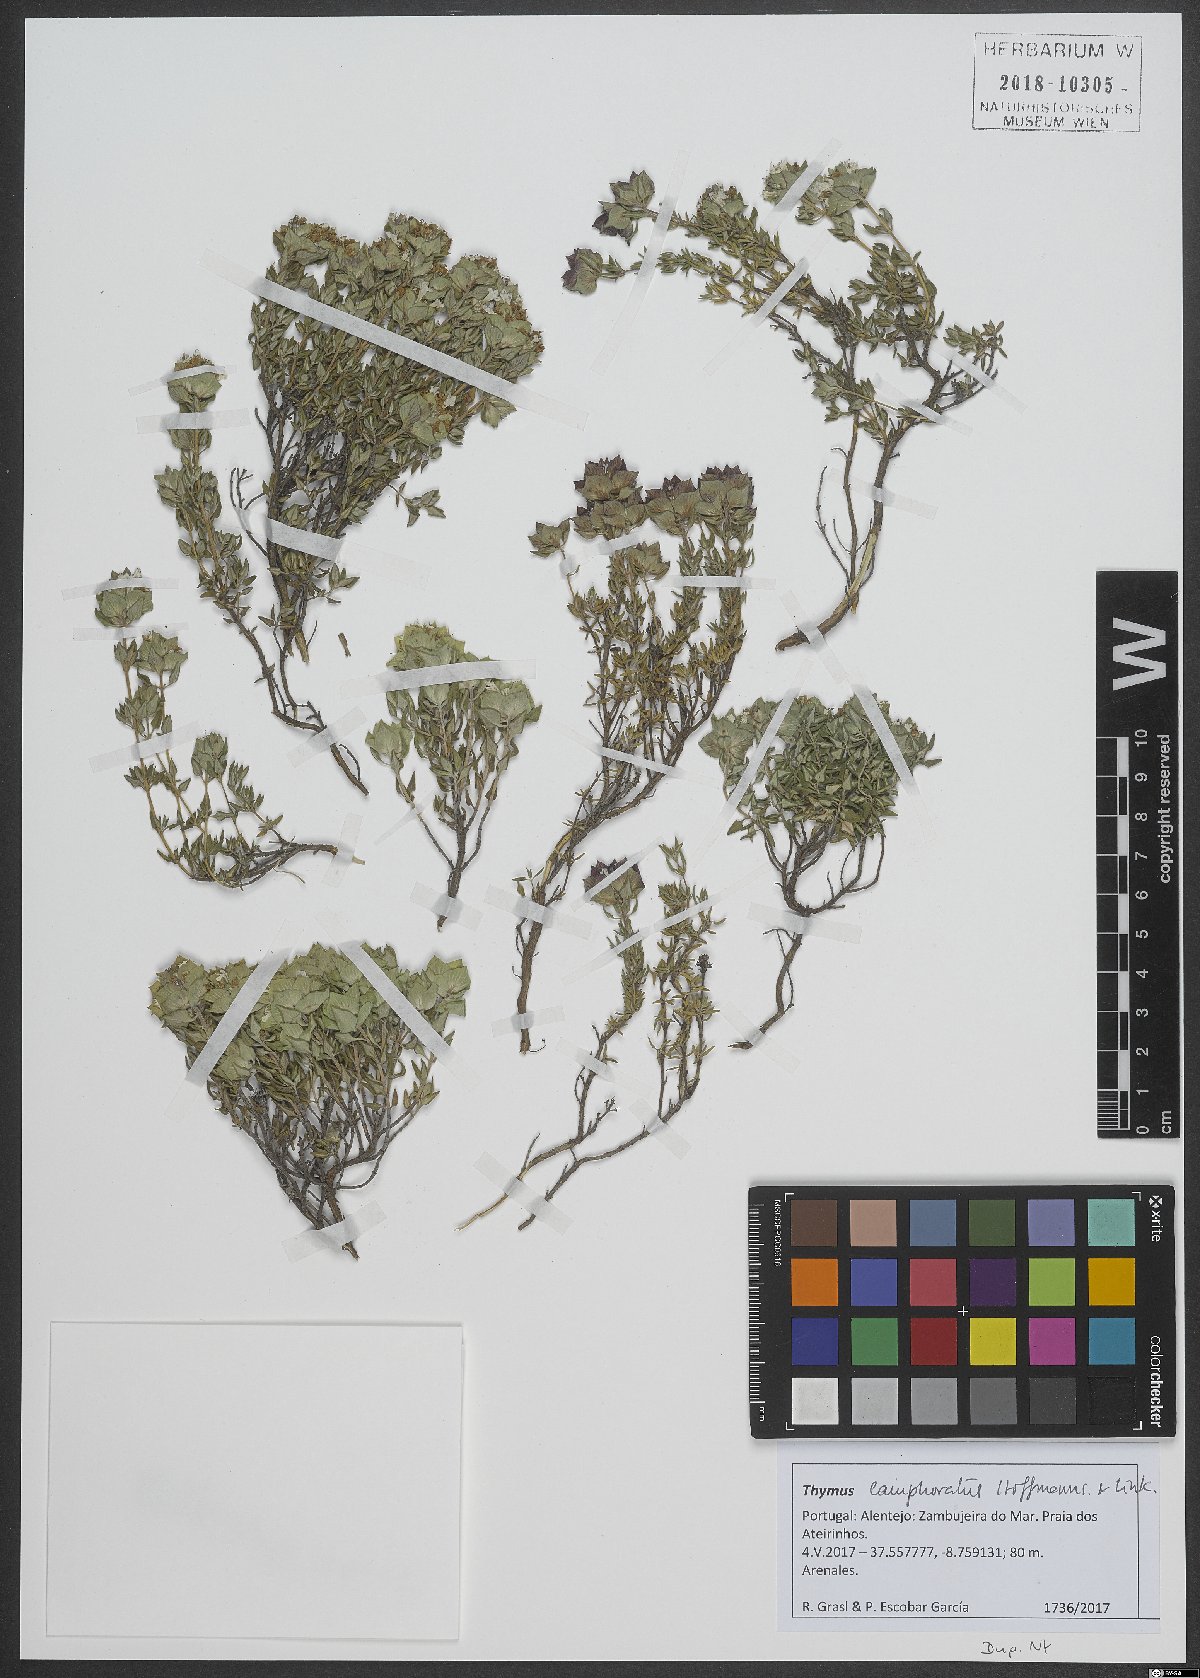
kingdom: Plantae
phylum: Tracheophyta
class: Magnoliopsida
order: Lamiales
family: Lamiaceae
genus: Thymus
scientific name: Thymus camphoratus
